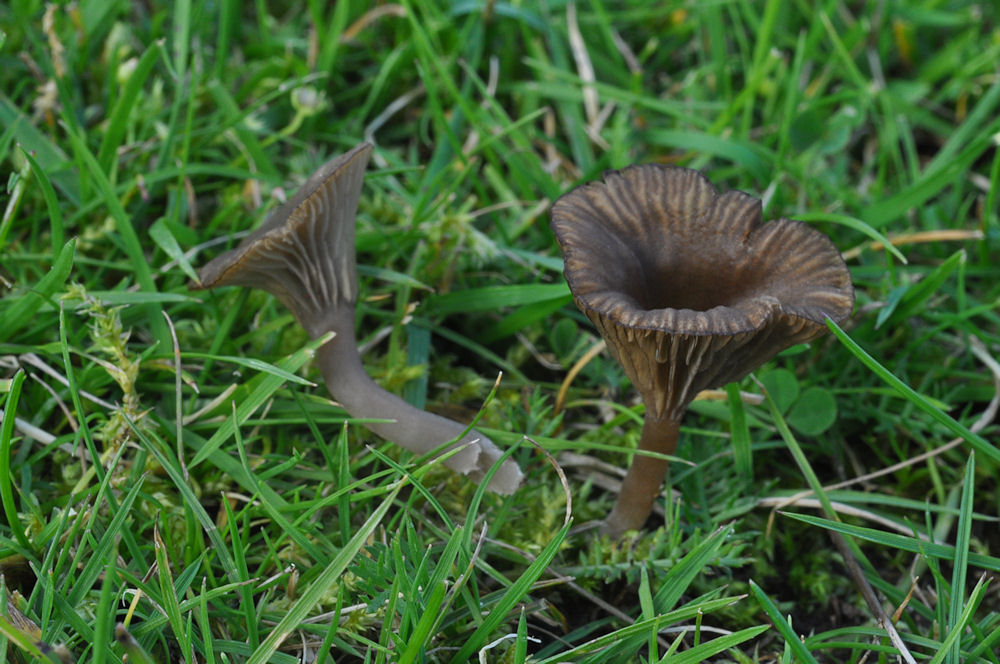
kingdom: Fungi
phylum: Basidiomycota
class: Agaricomycetes
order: Agaricales
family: Hygrophoraceae
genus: Arrhenia
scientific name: Arrhenia griseopallida
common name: bleggrå fontænehat
